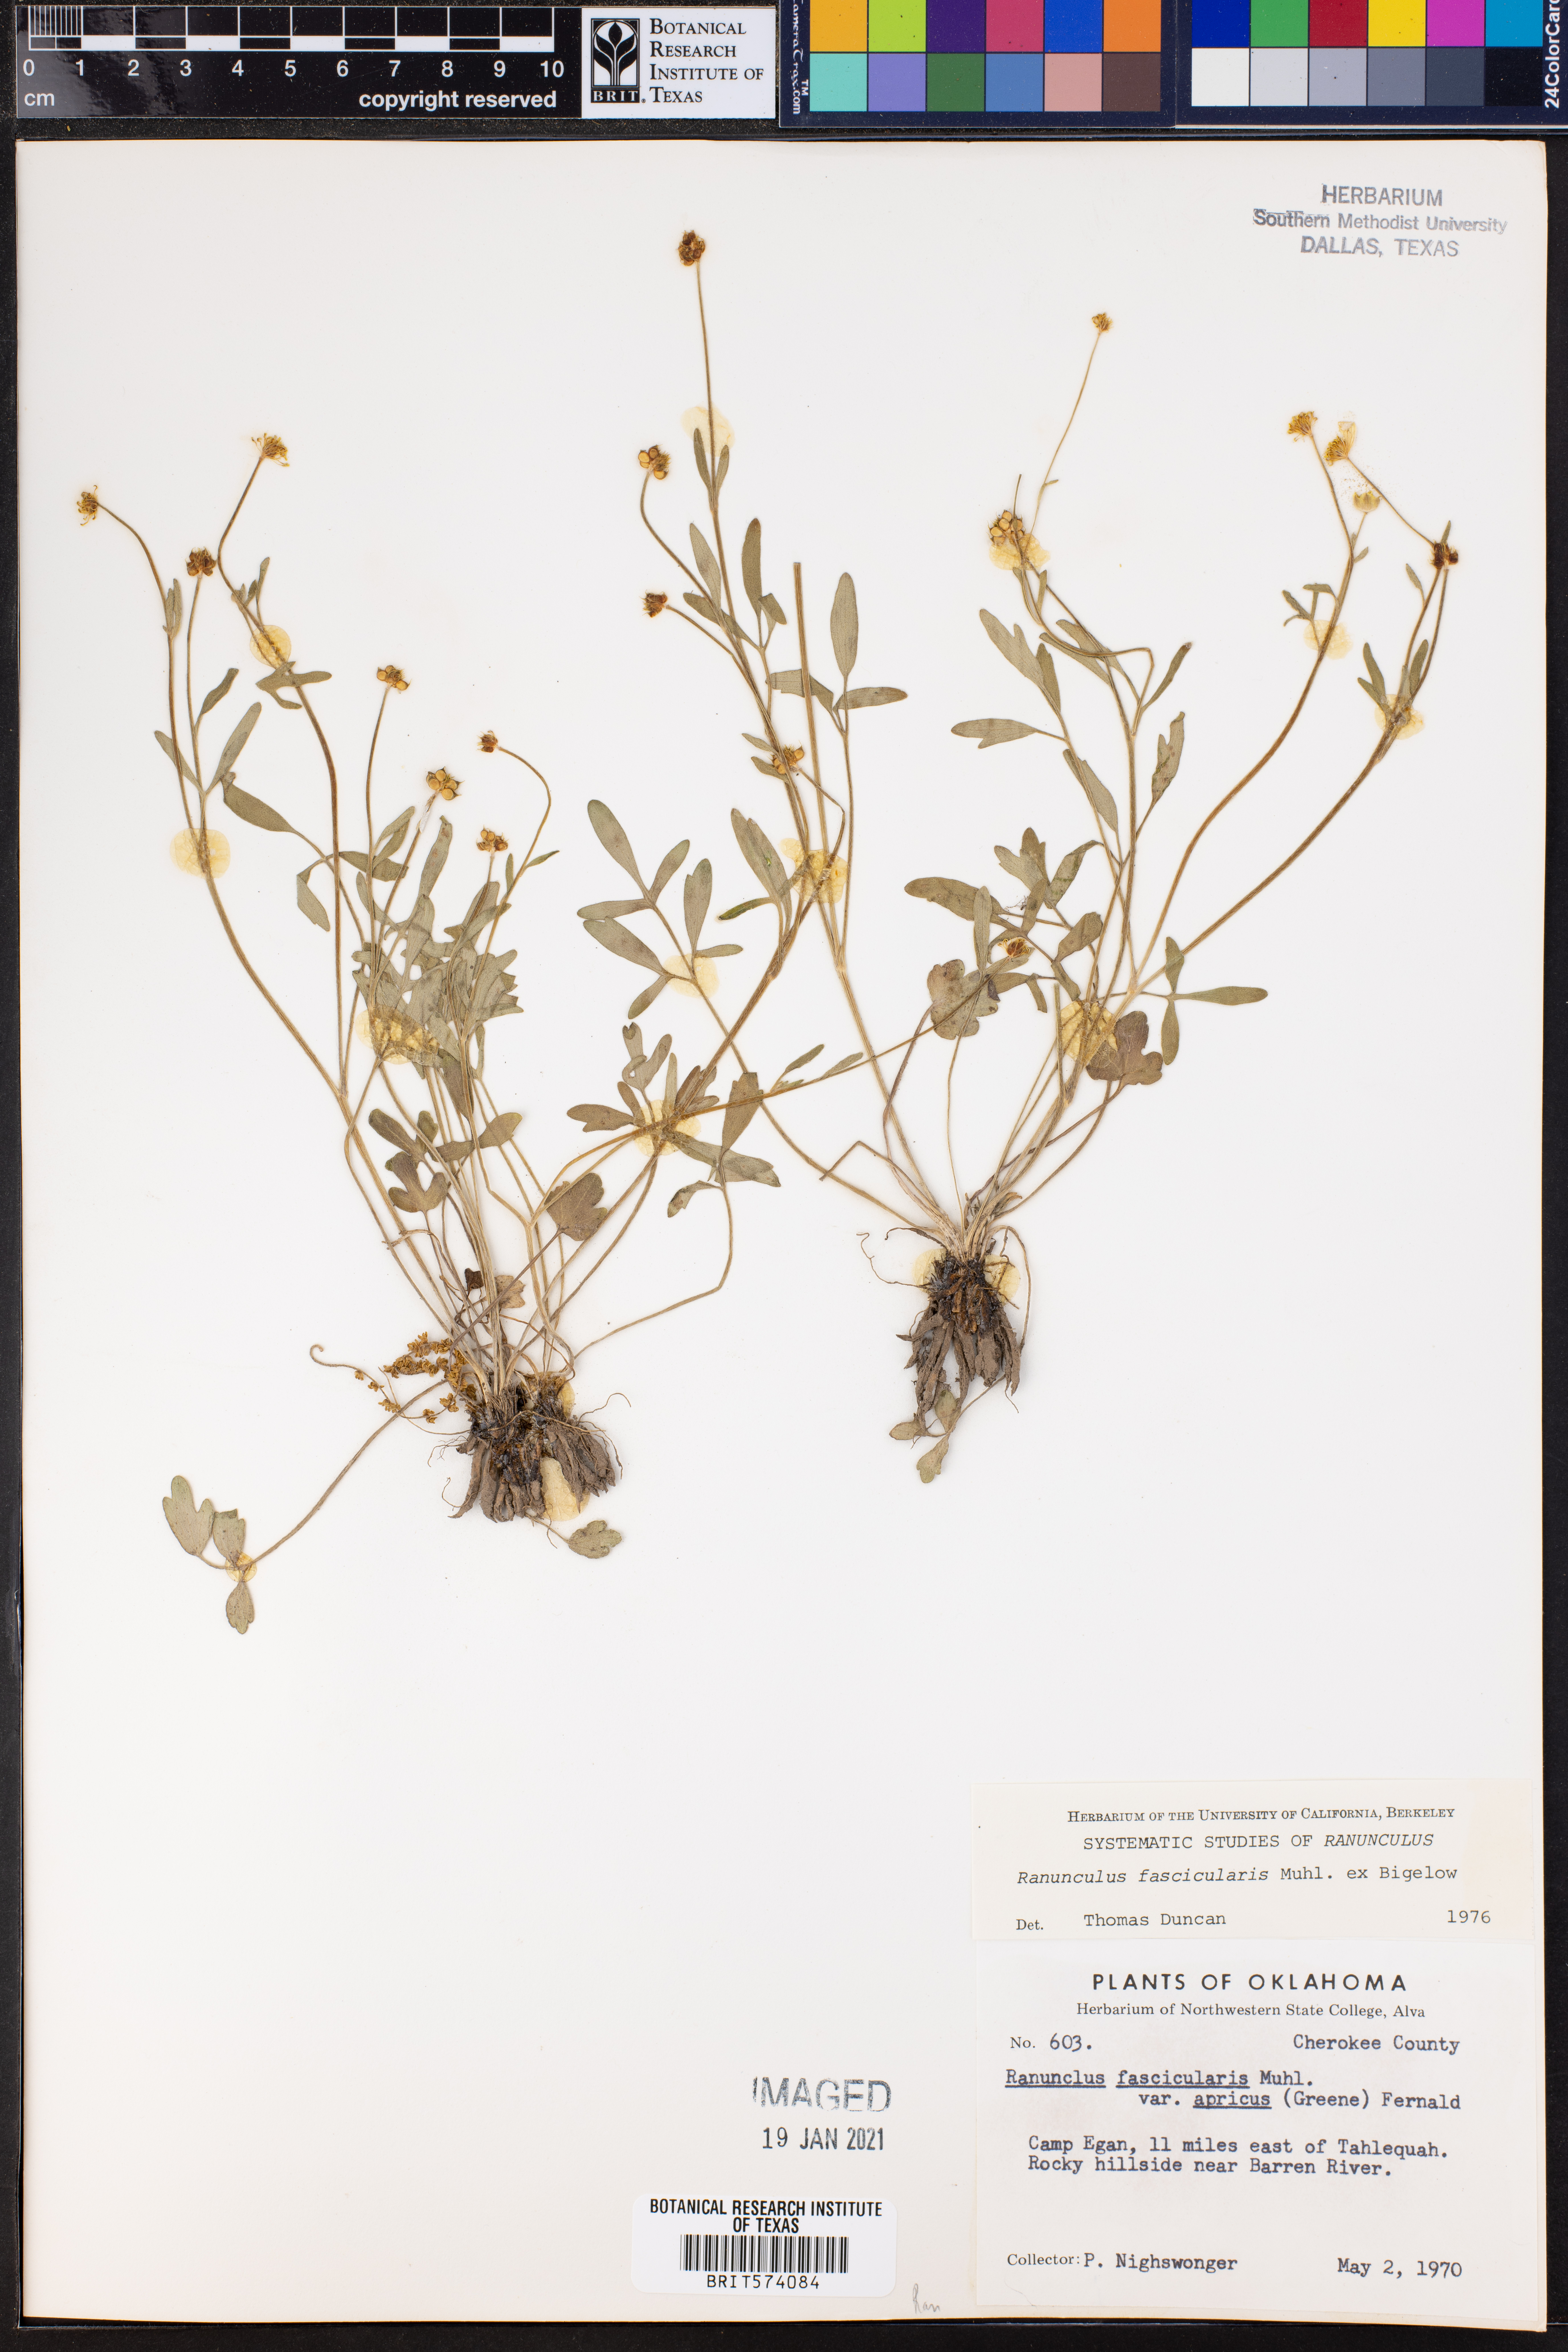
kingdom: Plantae
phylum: Tracheophyta
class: Magnoliopsida
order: Ranunculales
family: Ranunculaceae
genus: Ranunculus
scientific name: Ranunculus fascicularis
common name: Early buttercup
